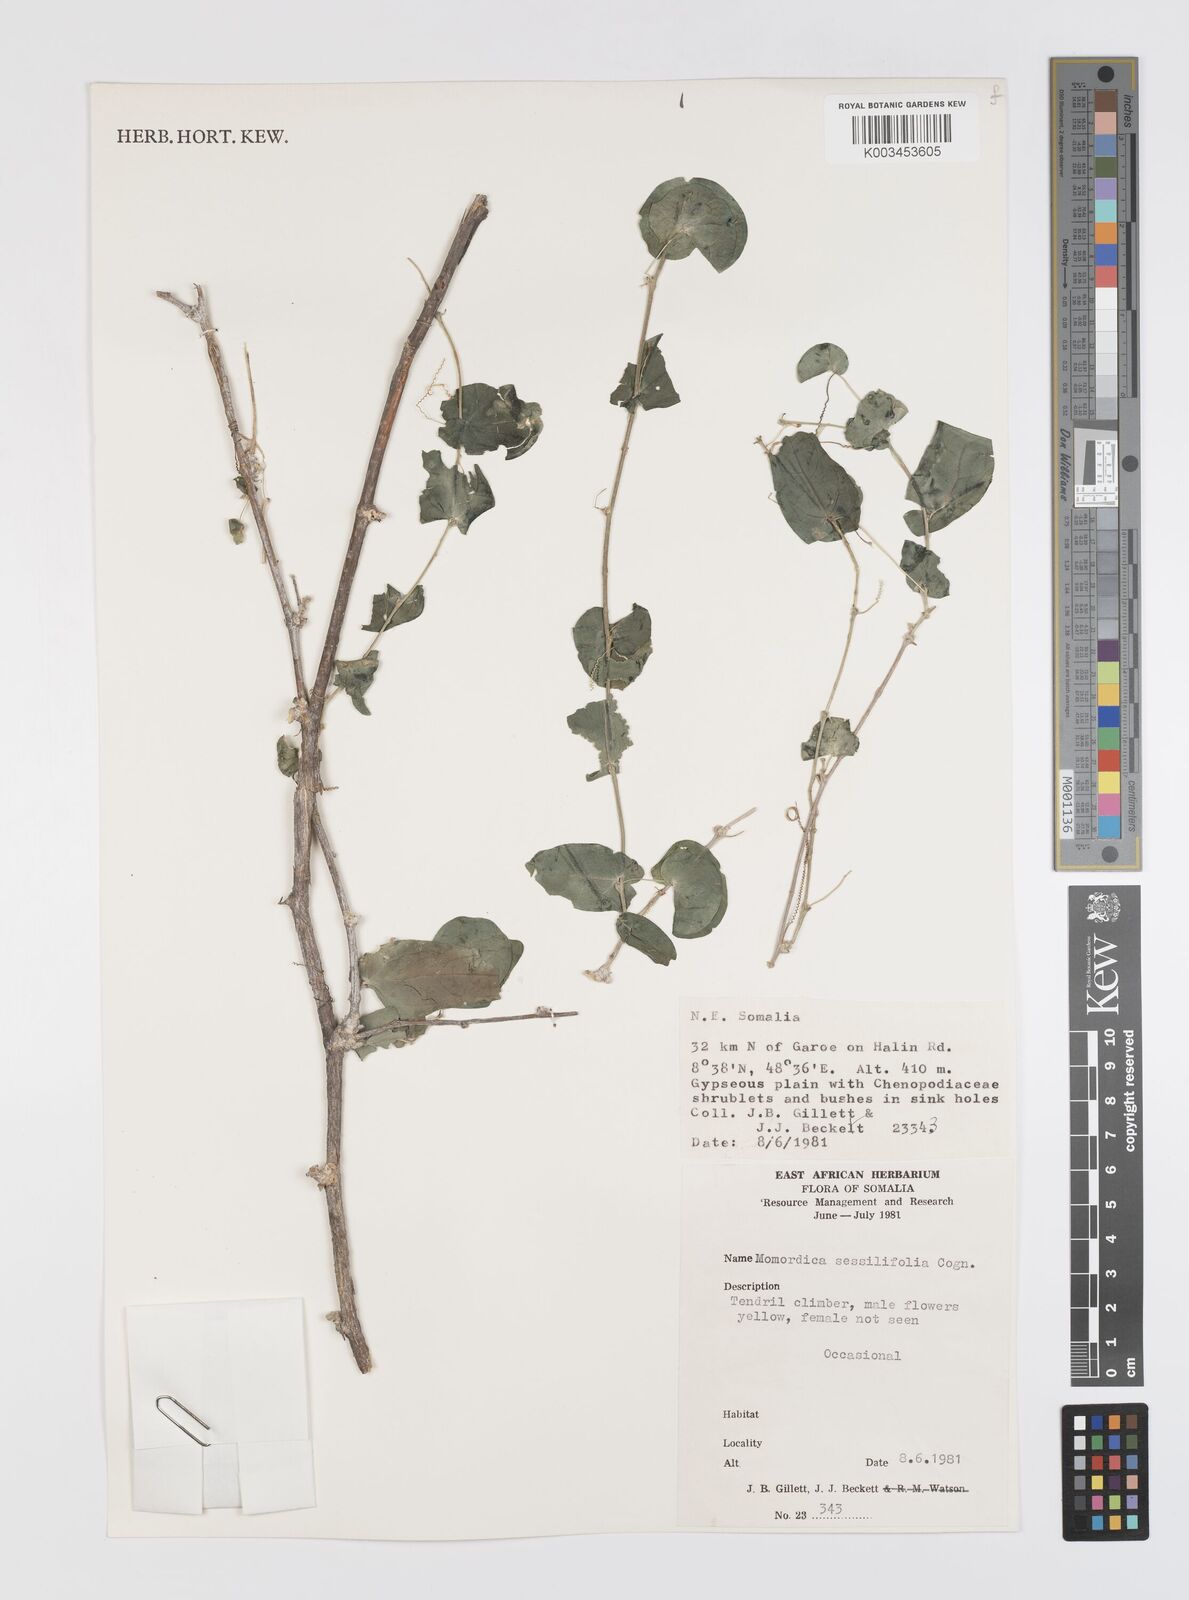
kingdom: Plantae
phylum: Tracheophyta
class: Magnoliopsida
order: Cucurbitales
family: Cucurbitaceae
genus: Momordica
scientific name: Momordica sessilifolia
